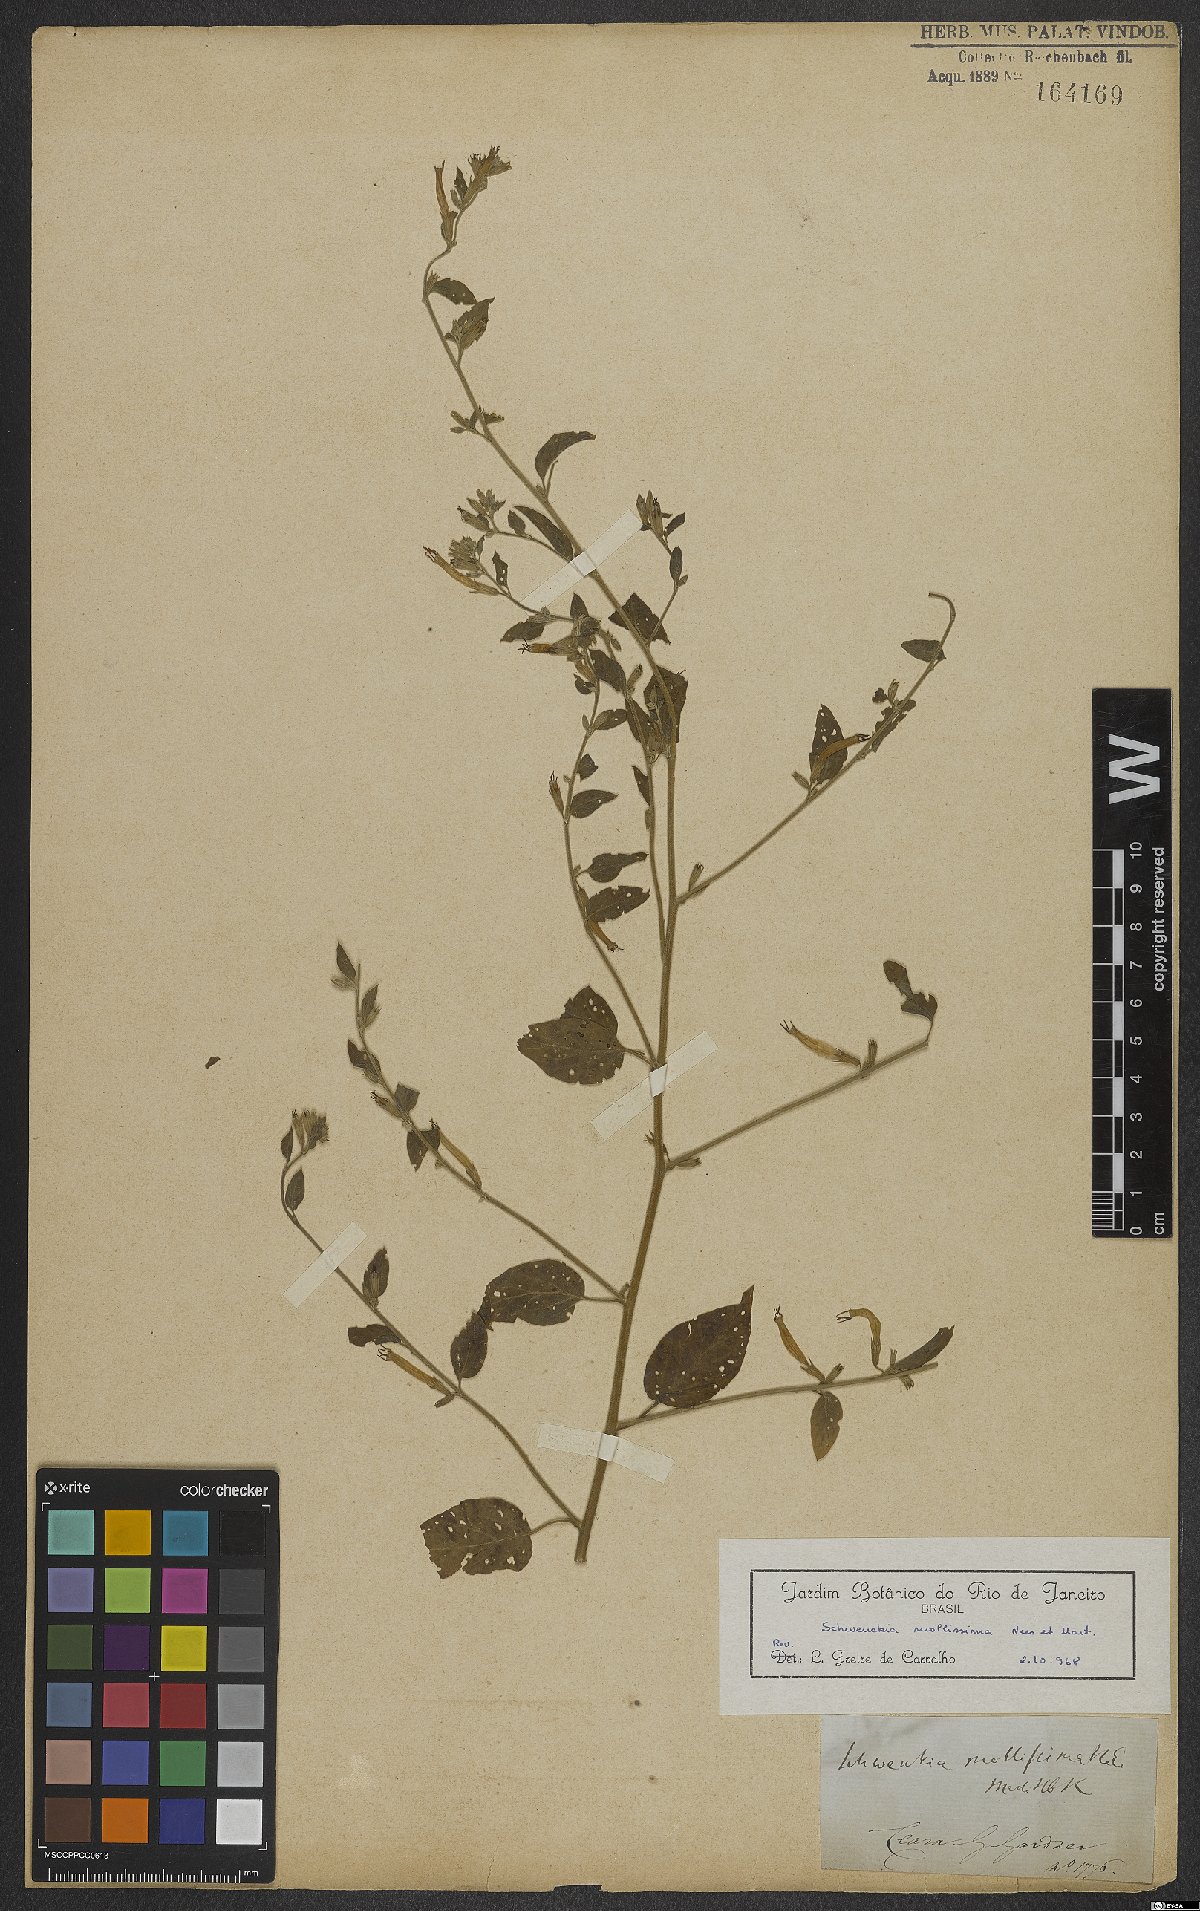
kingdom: Plantae
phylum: Tracheophyta
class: Magnoliopsida
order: Solanales
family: Solanaceae
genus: Schwenckia
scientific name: Schwenckia paniculata
